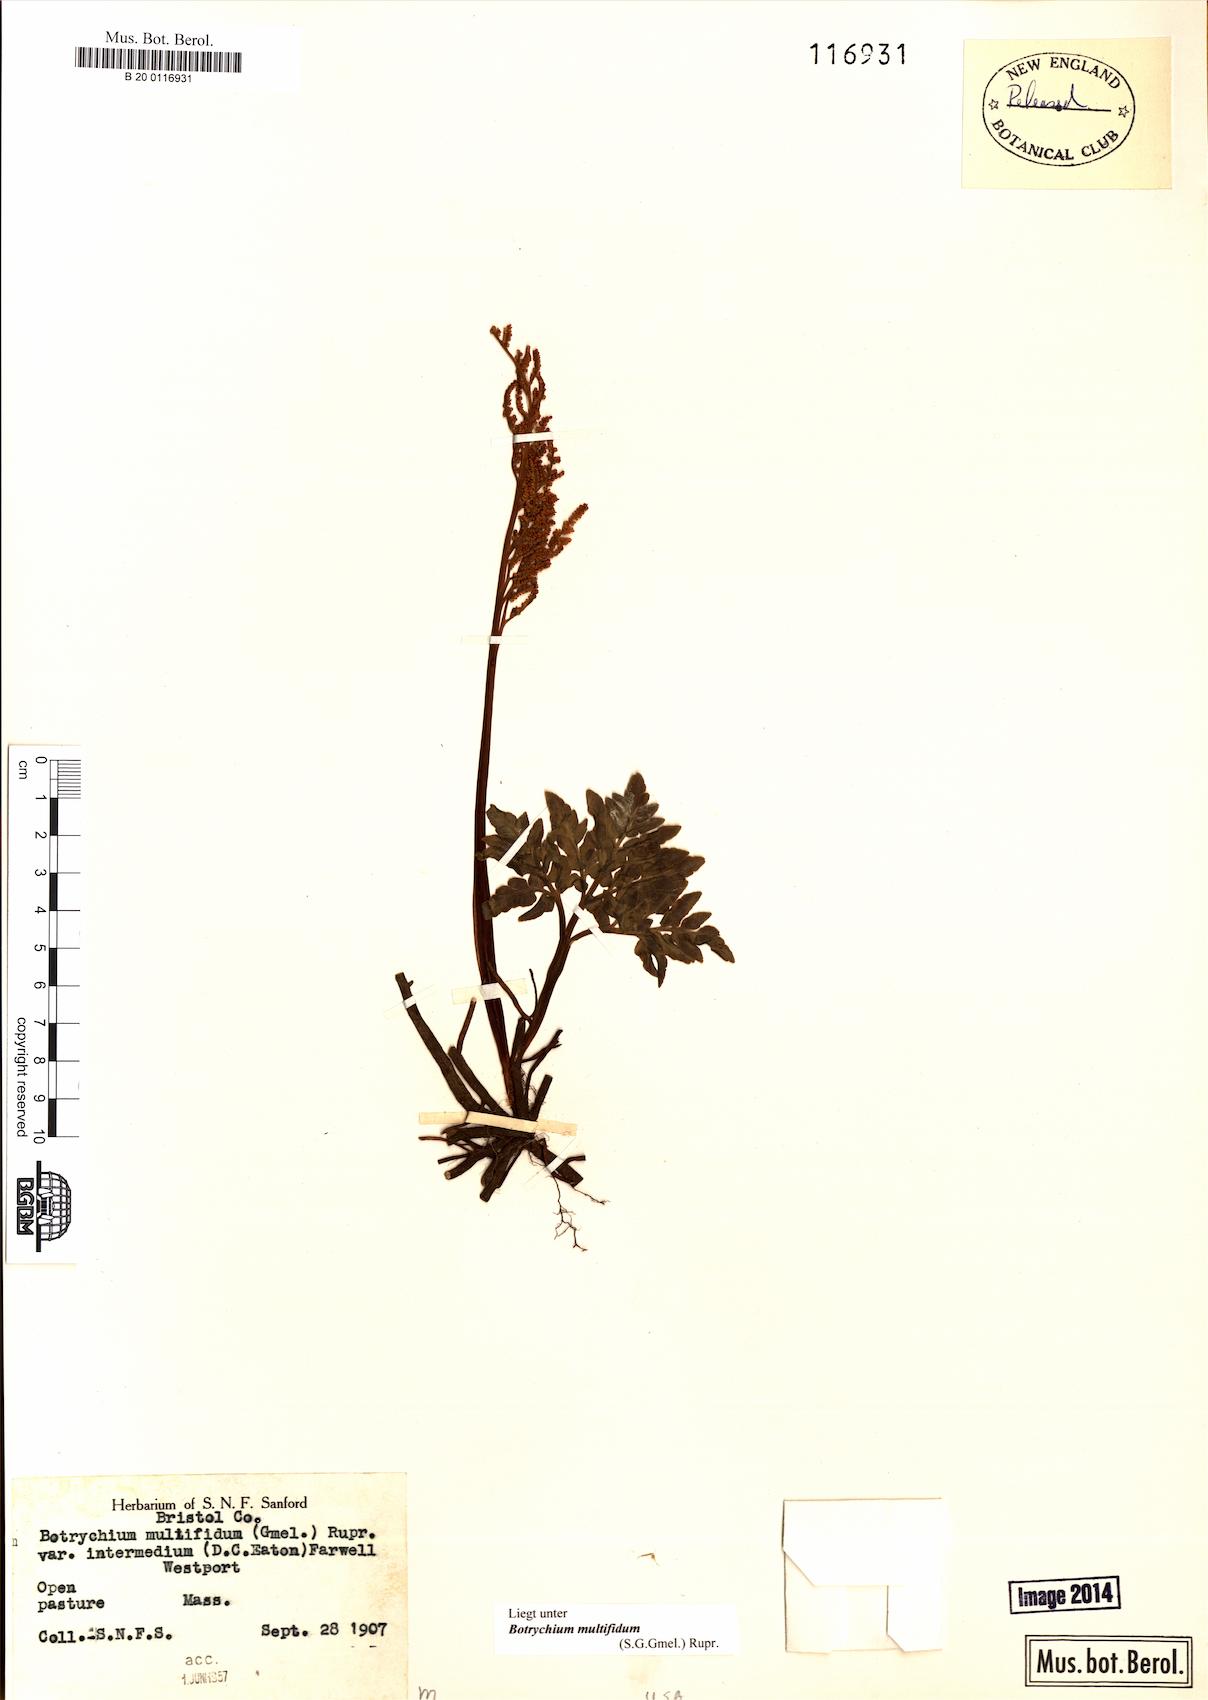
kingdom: Plantae
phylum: Tracheophyta
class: Polypodiopsida
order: Ophioglossales
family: Ophioglossaceae
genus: Sceptridium
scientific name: Sceptridium multifidum
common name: Leathery grape fern
